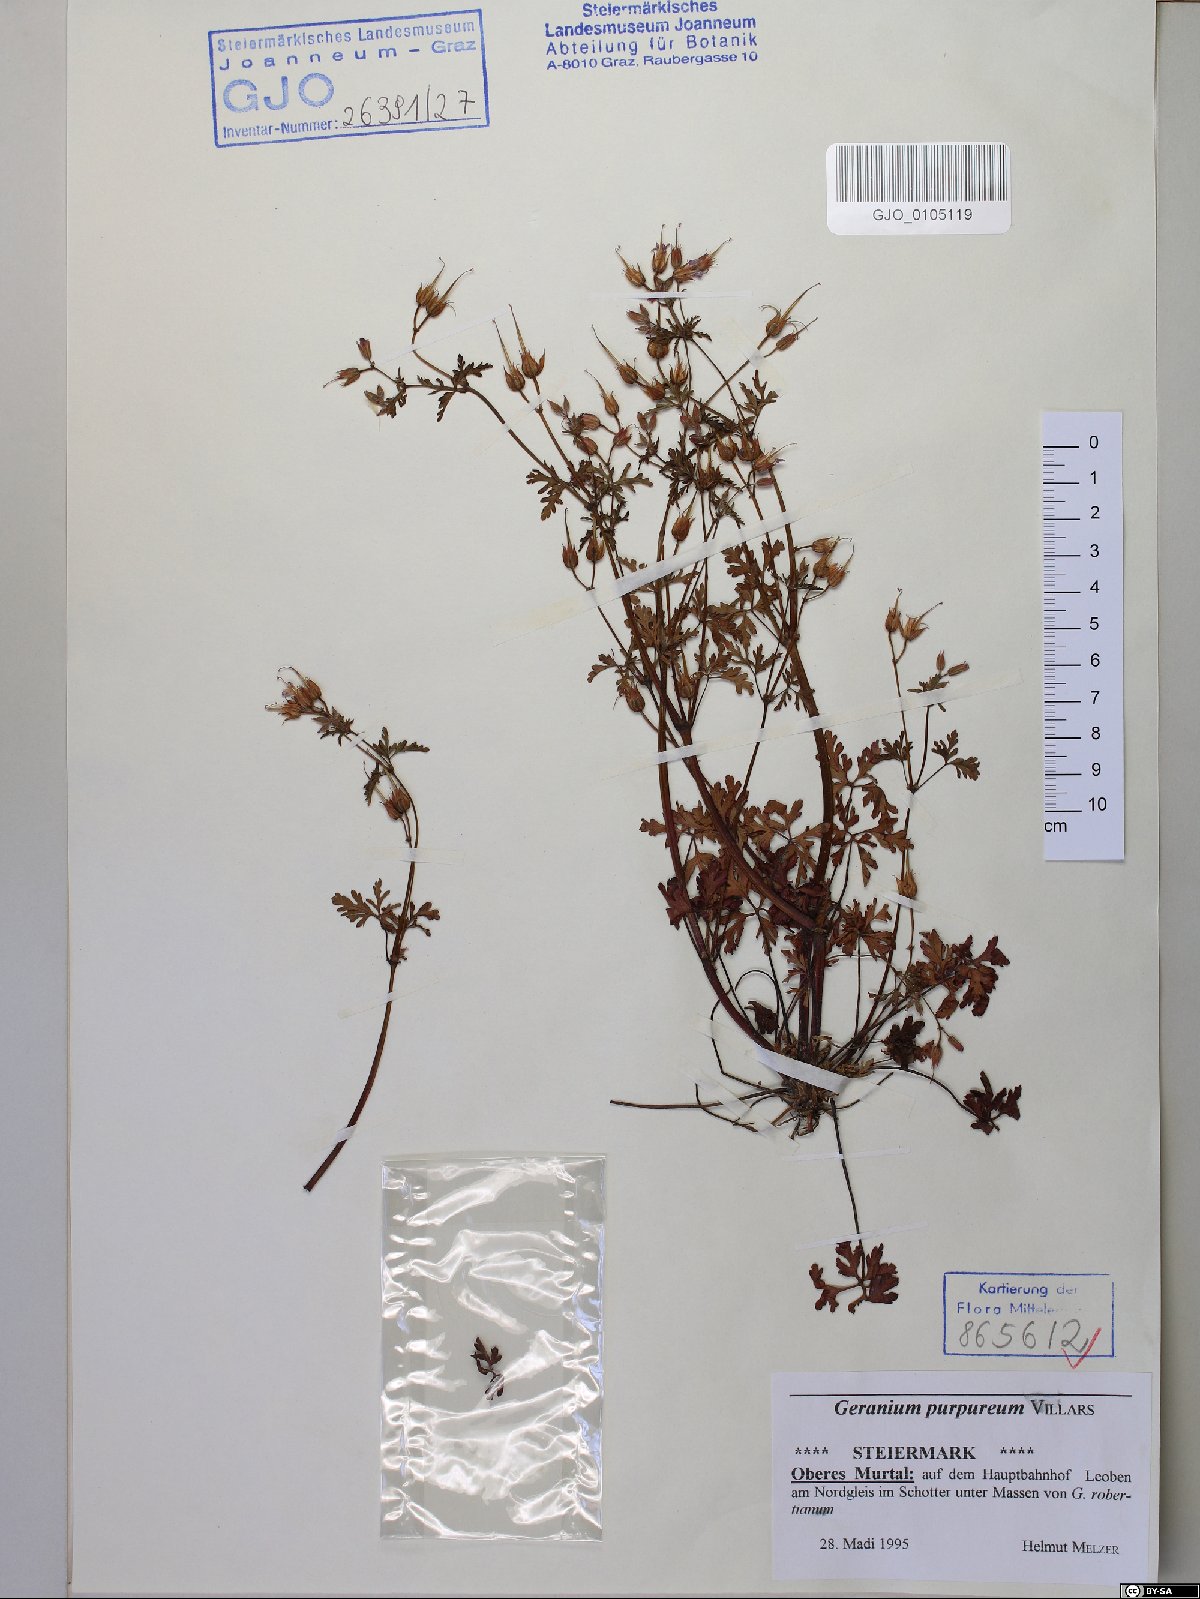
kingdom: Plantae
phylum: Tracheophyta
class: Magnoliopsida
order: Geraniales
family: Geraniaceae
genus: Geranium
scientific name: Geranium purpureum
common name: Little-robin
